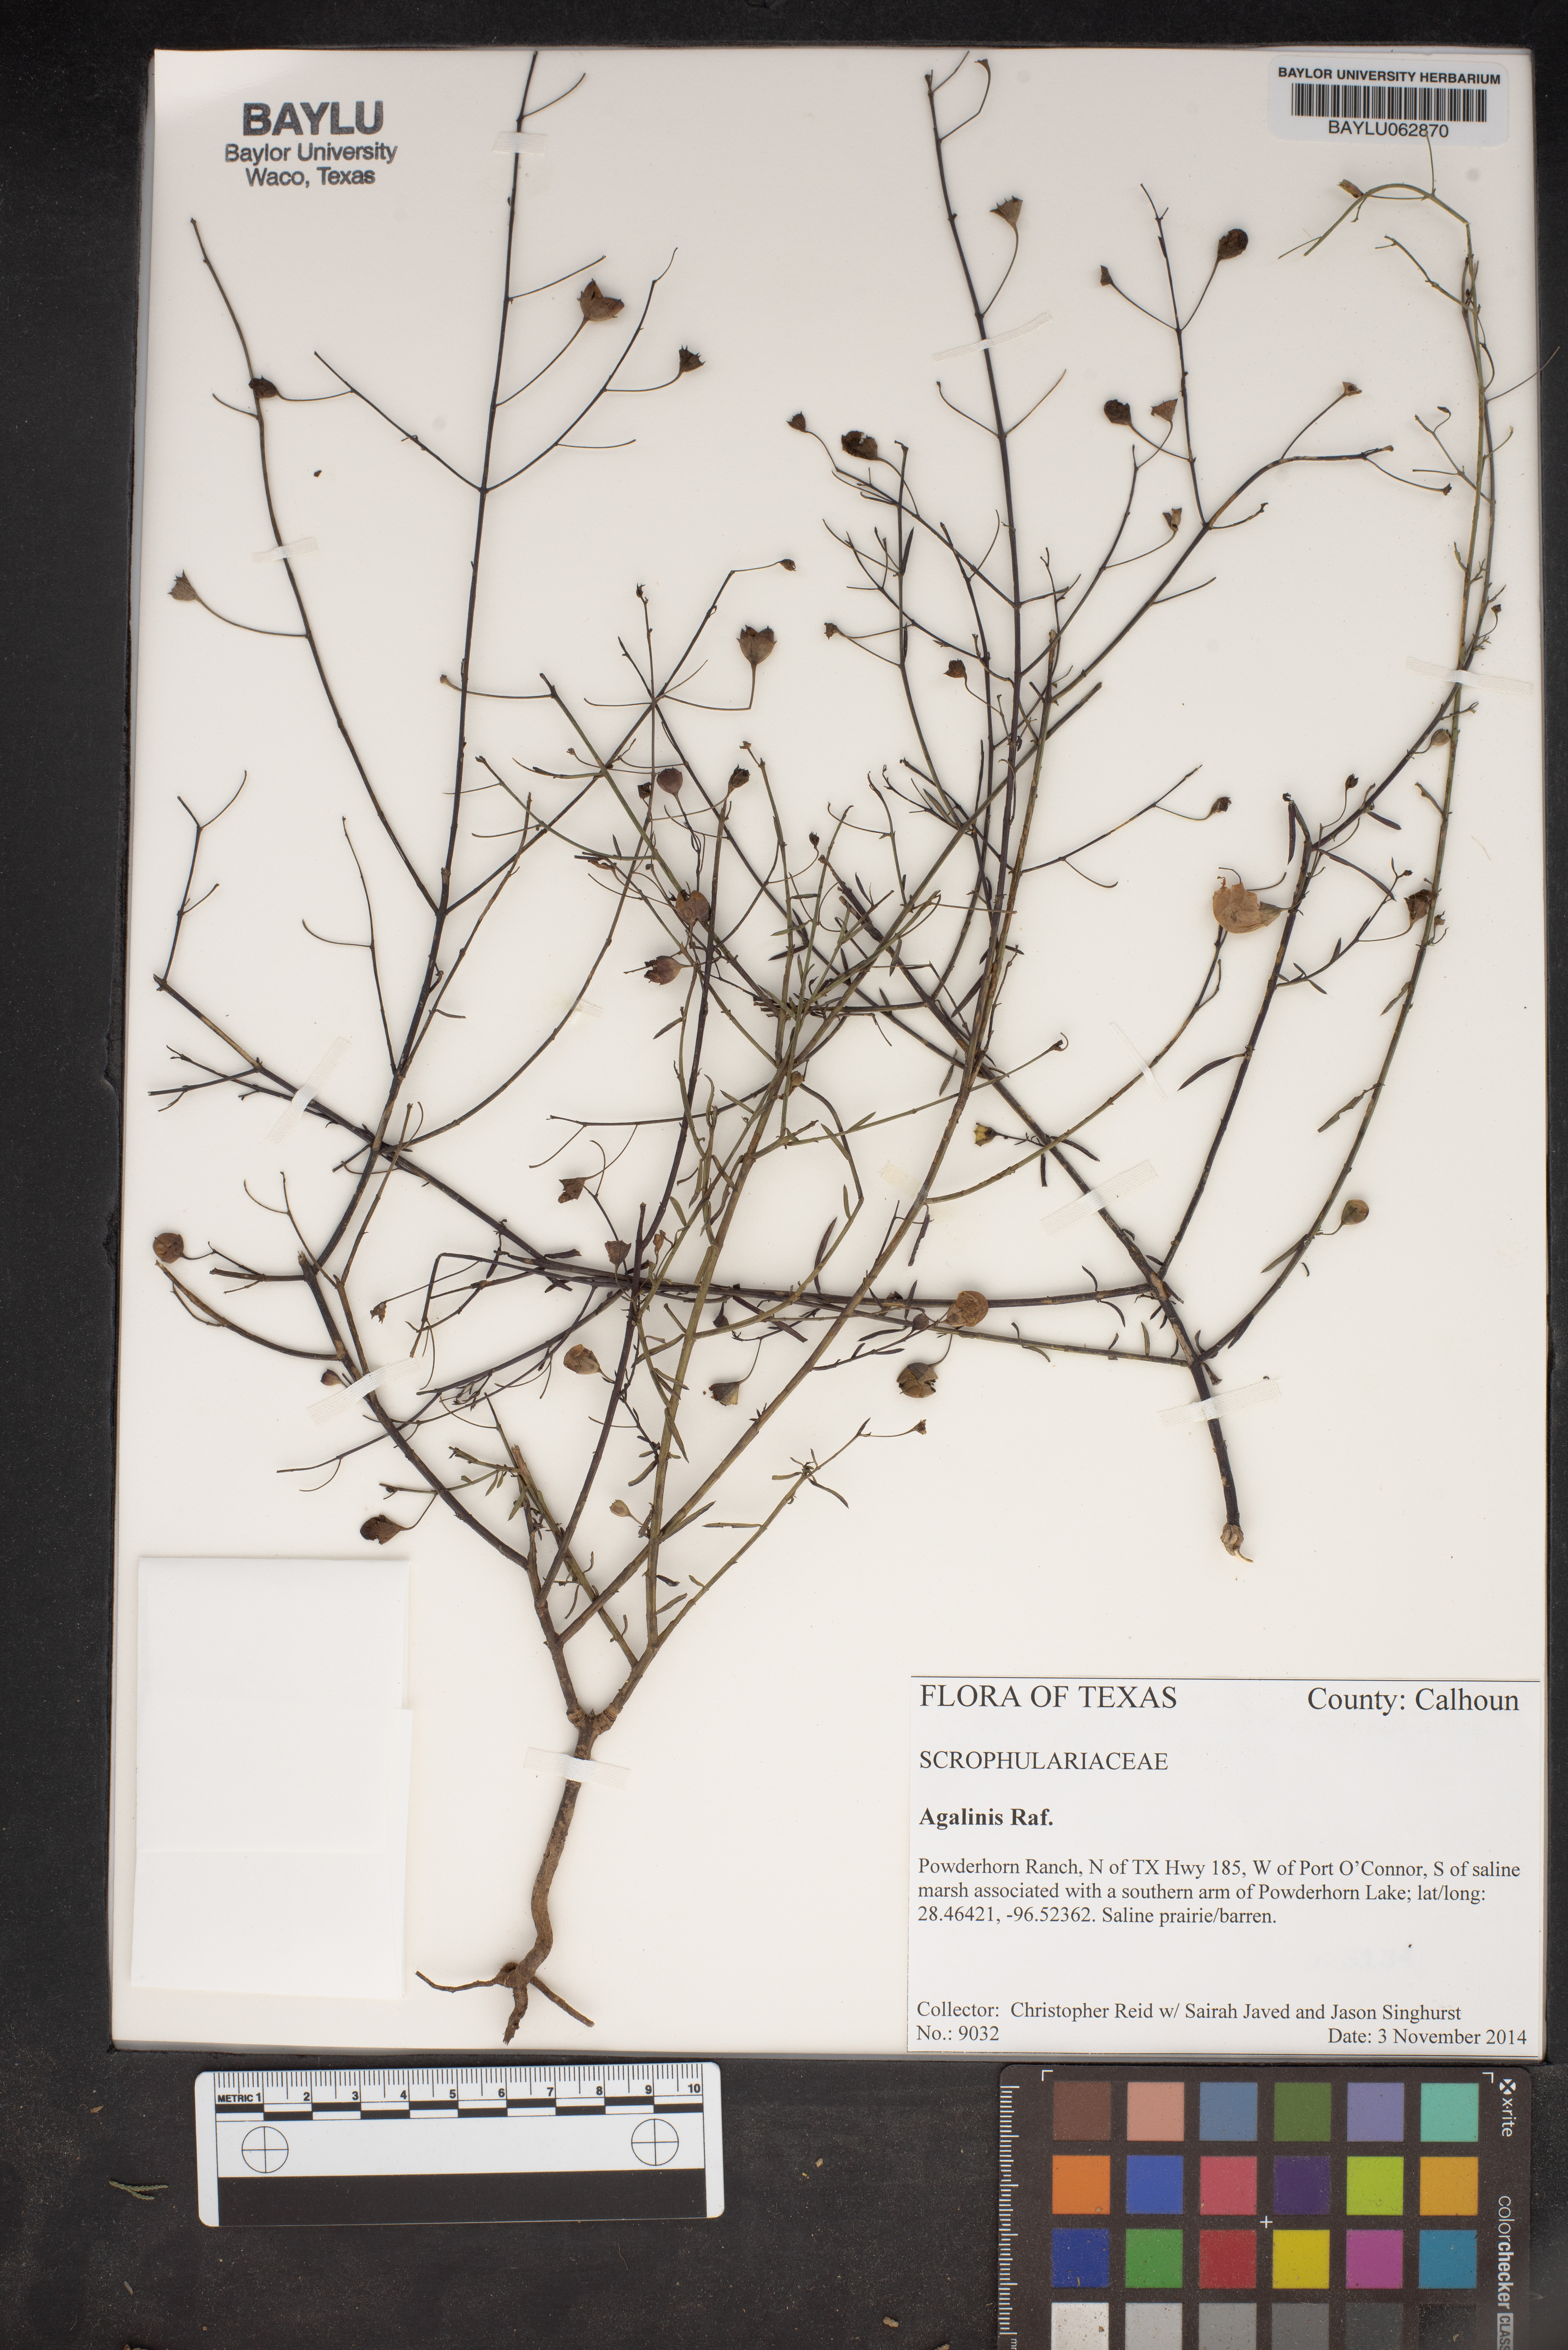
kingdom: Plantae
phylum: Tracheophyta
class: Magnoliopsida
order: Lamiales
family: Orobanchaceae
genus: Agalinis
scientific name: Agalinis
